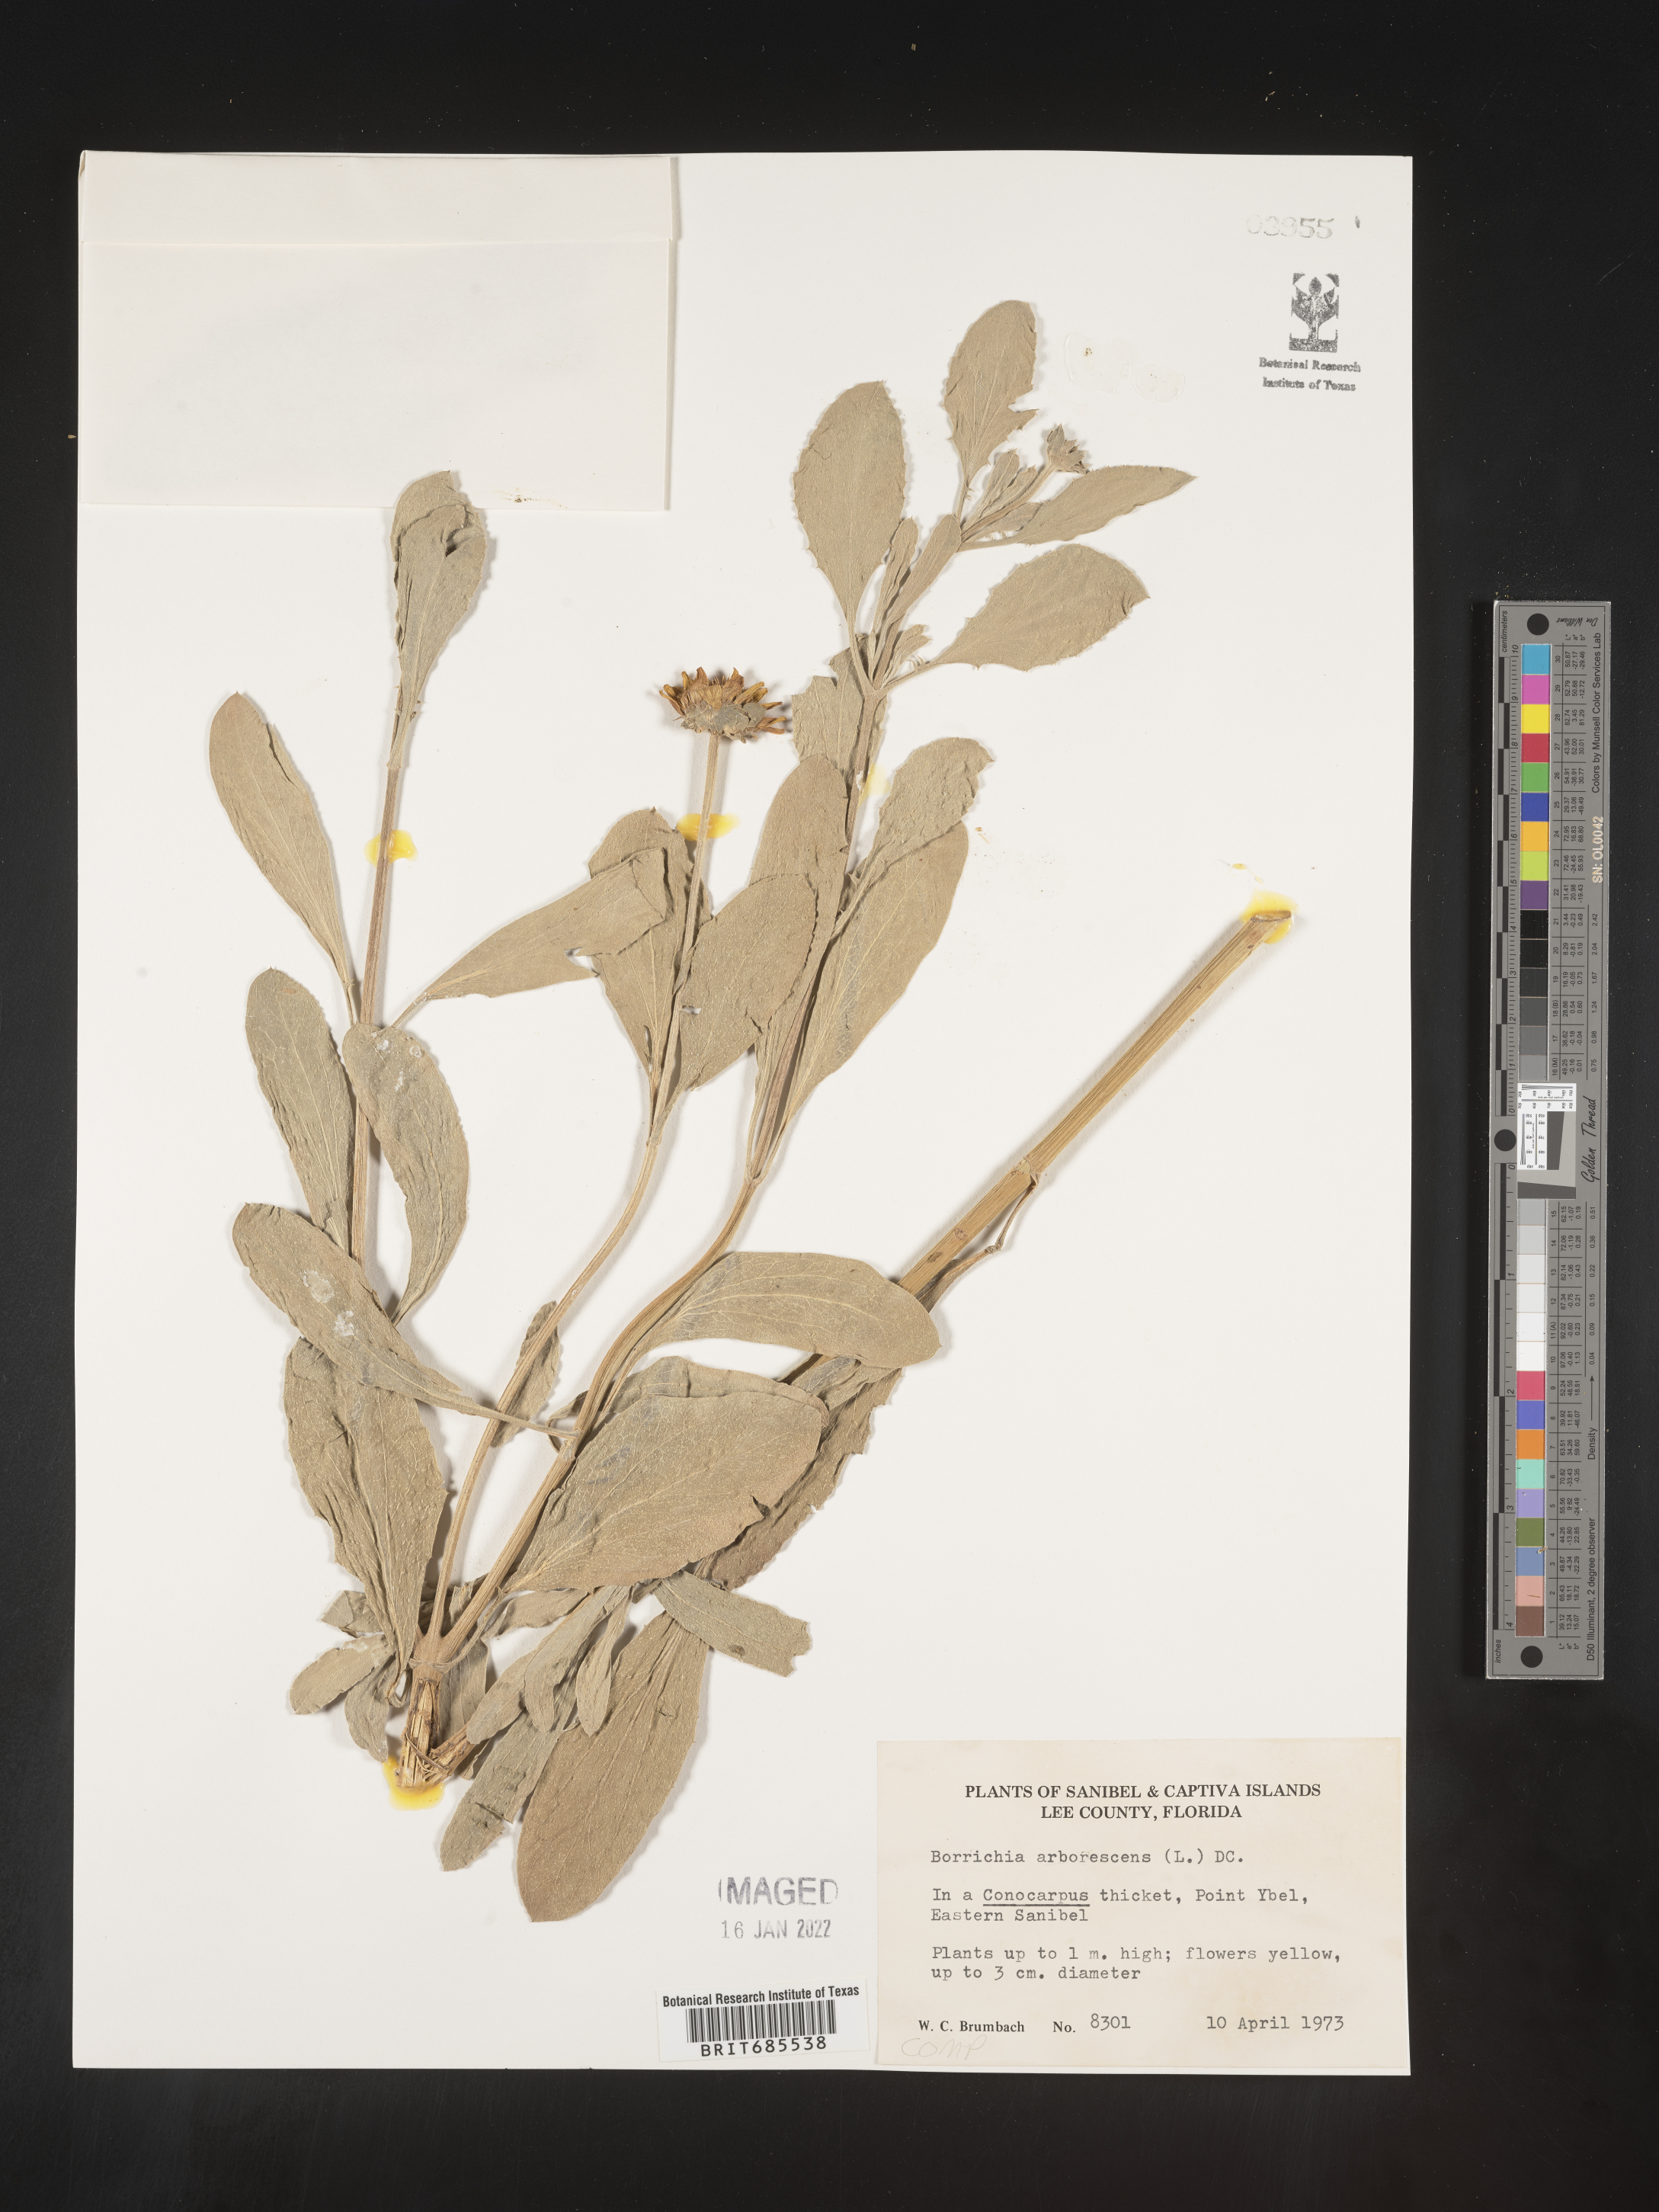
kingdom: Plantae
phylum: Tracheophyta
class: Magnoliopsida
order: Asterales
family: Asteraceae
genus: Borrichia
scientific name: Borrichia arborescens
